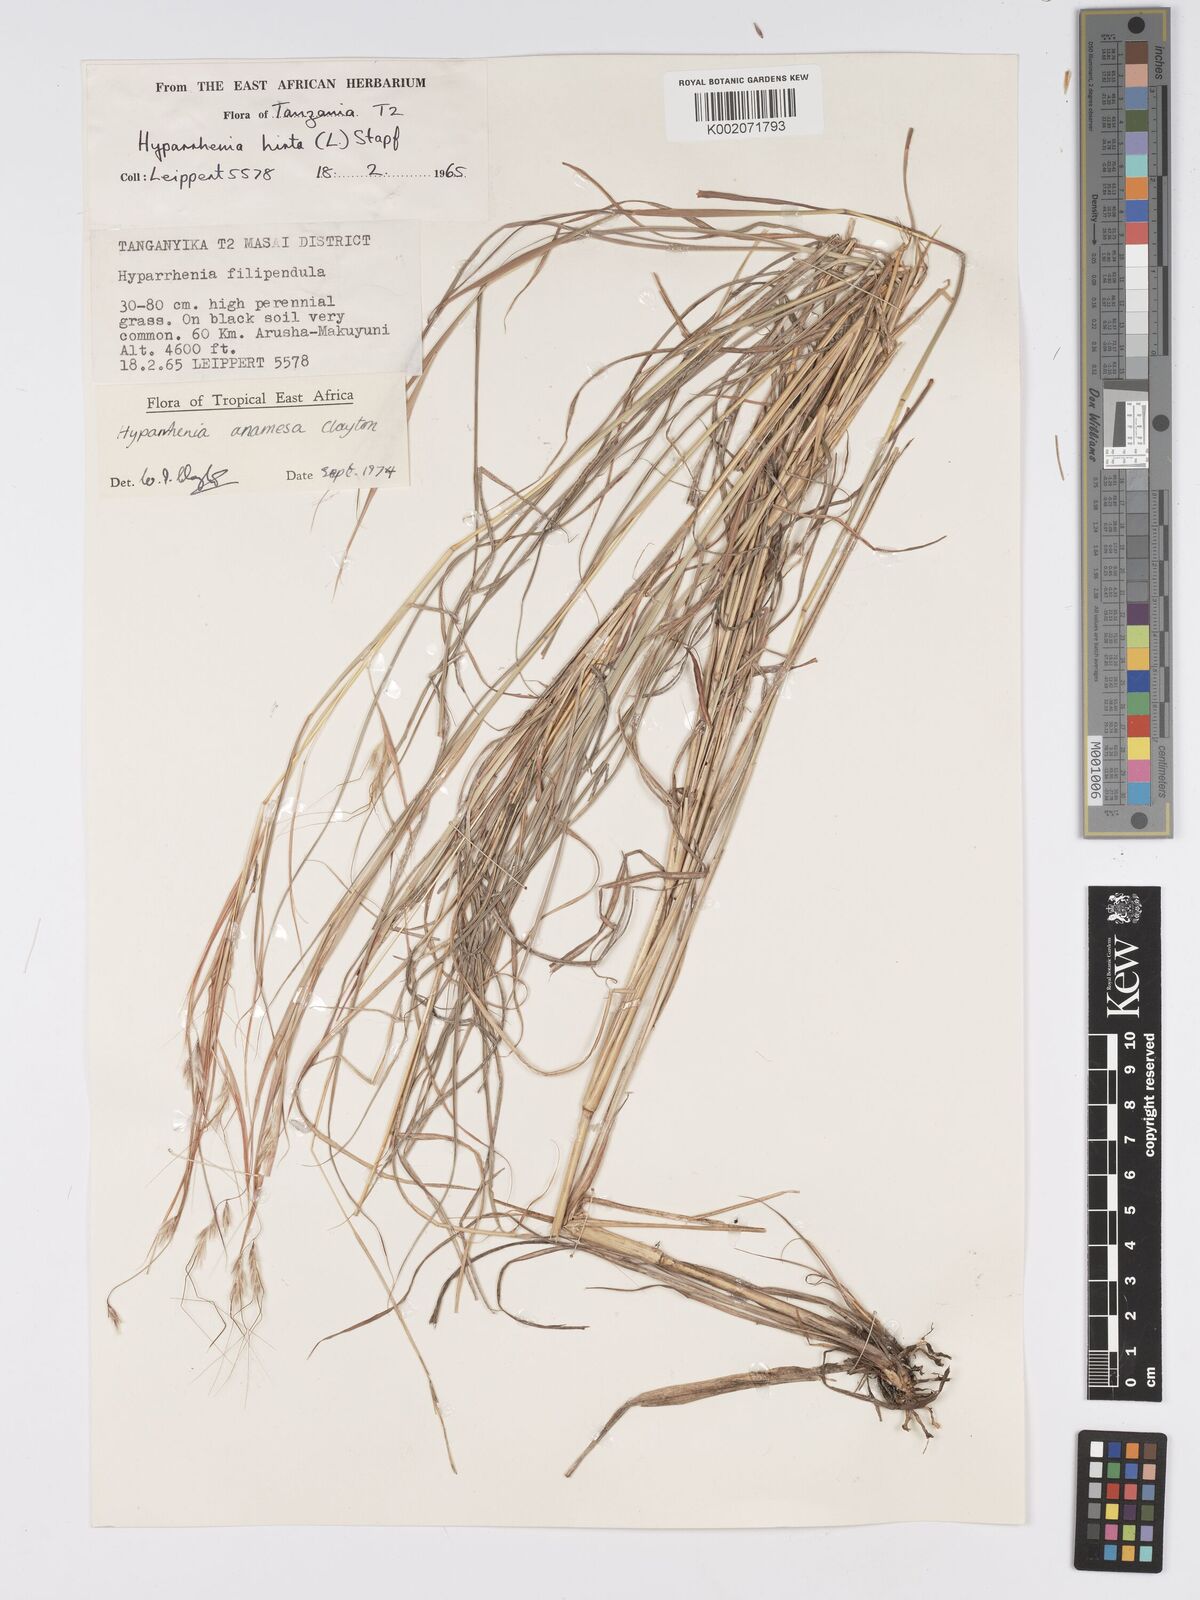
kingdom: Plantae
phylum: Tracheophyta
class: Liliopsida
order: Poales
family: Poaceae
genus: Hyparrhenia
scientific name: Hyparrhenia anamesa
